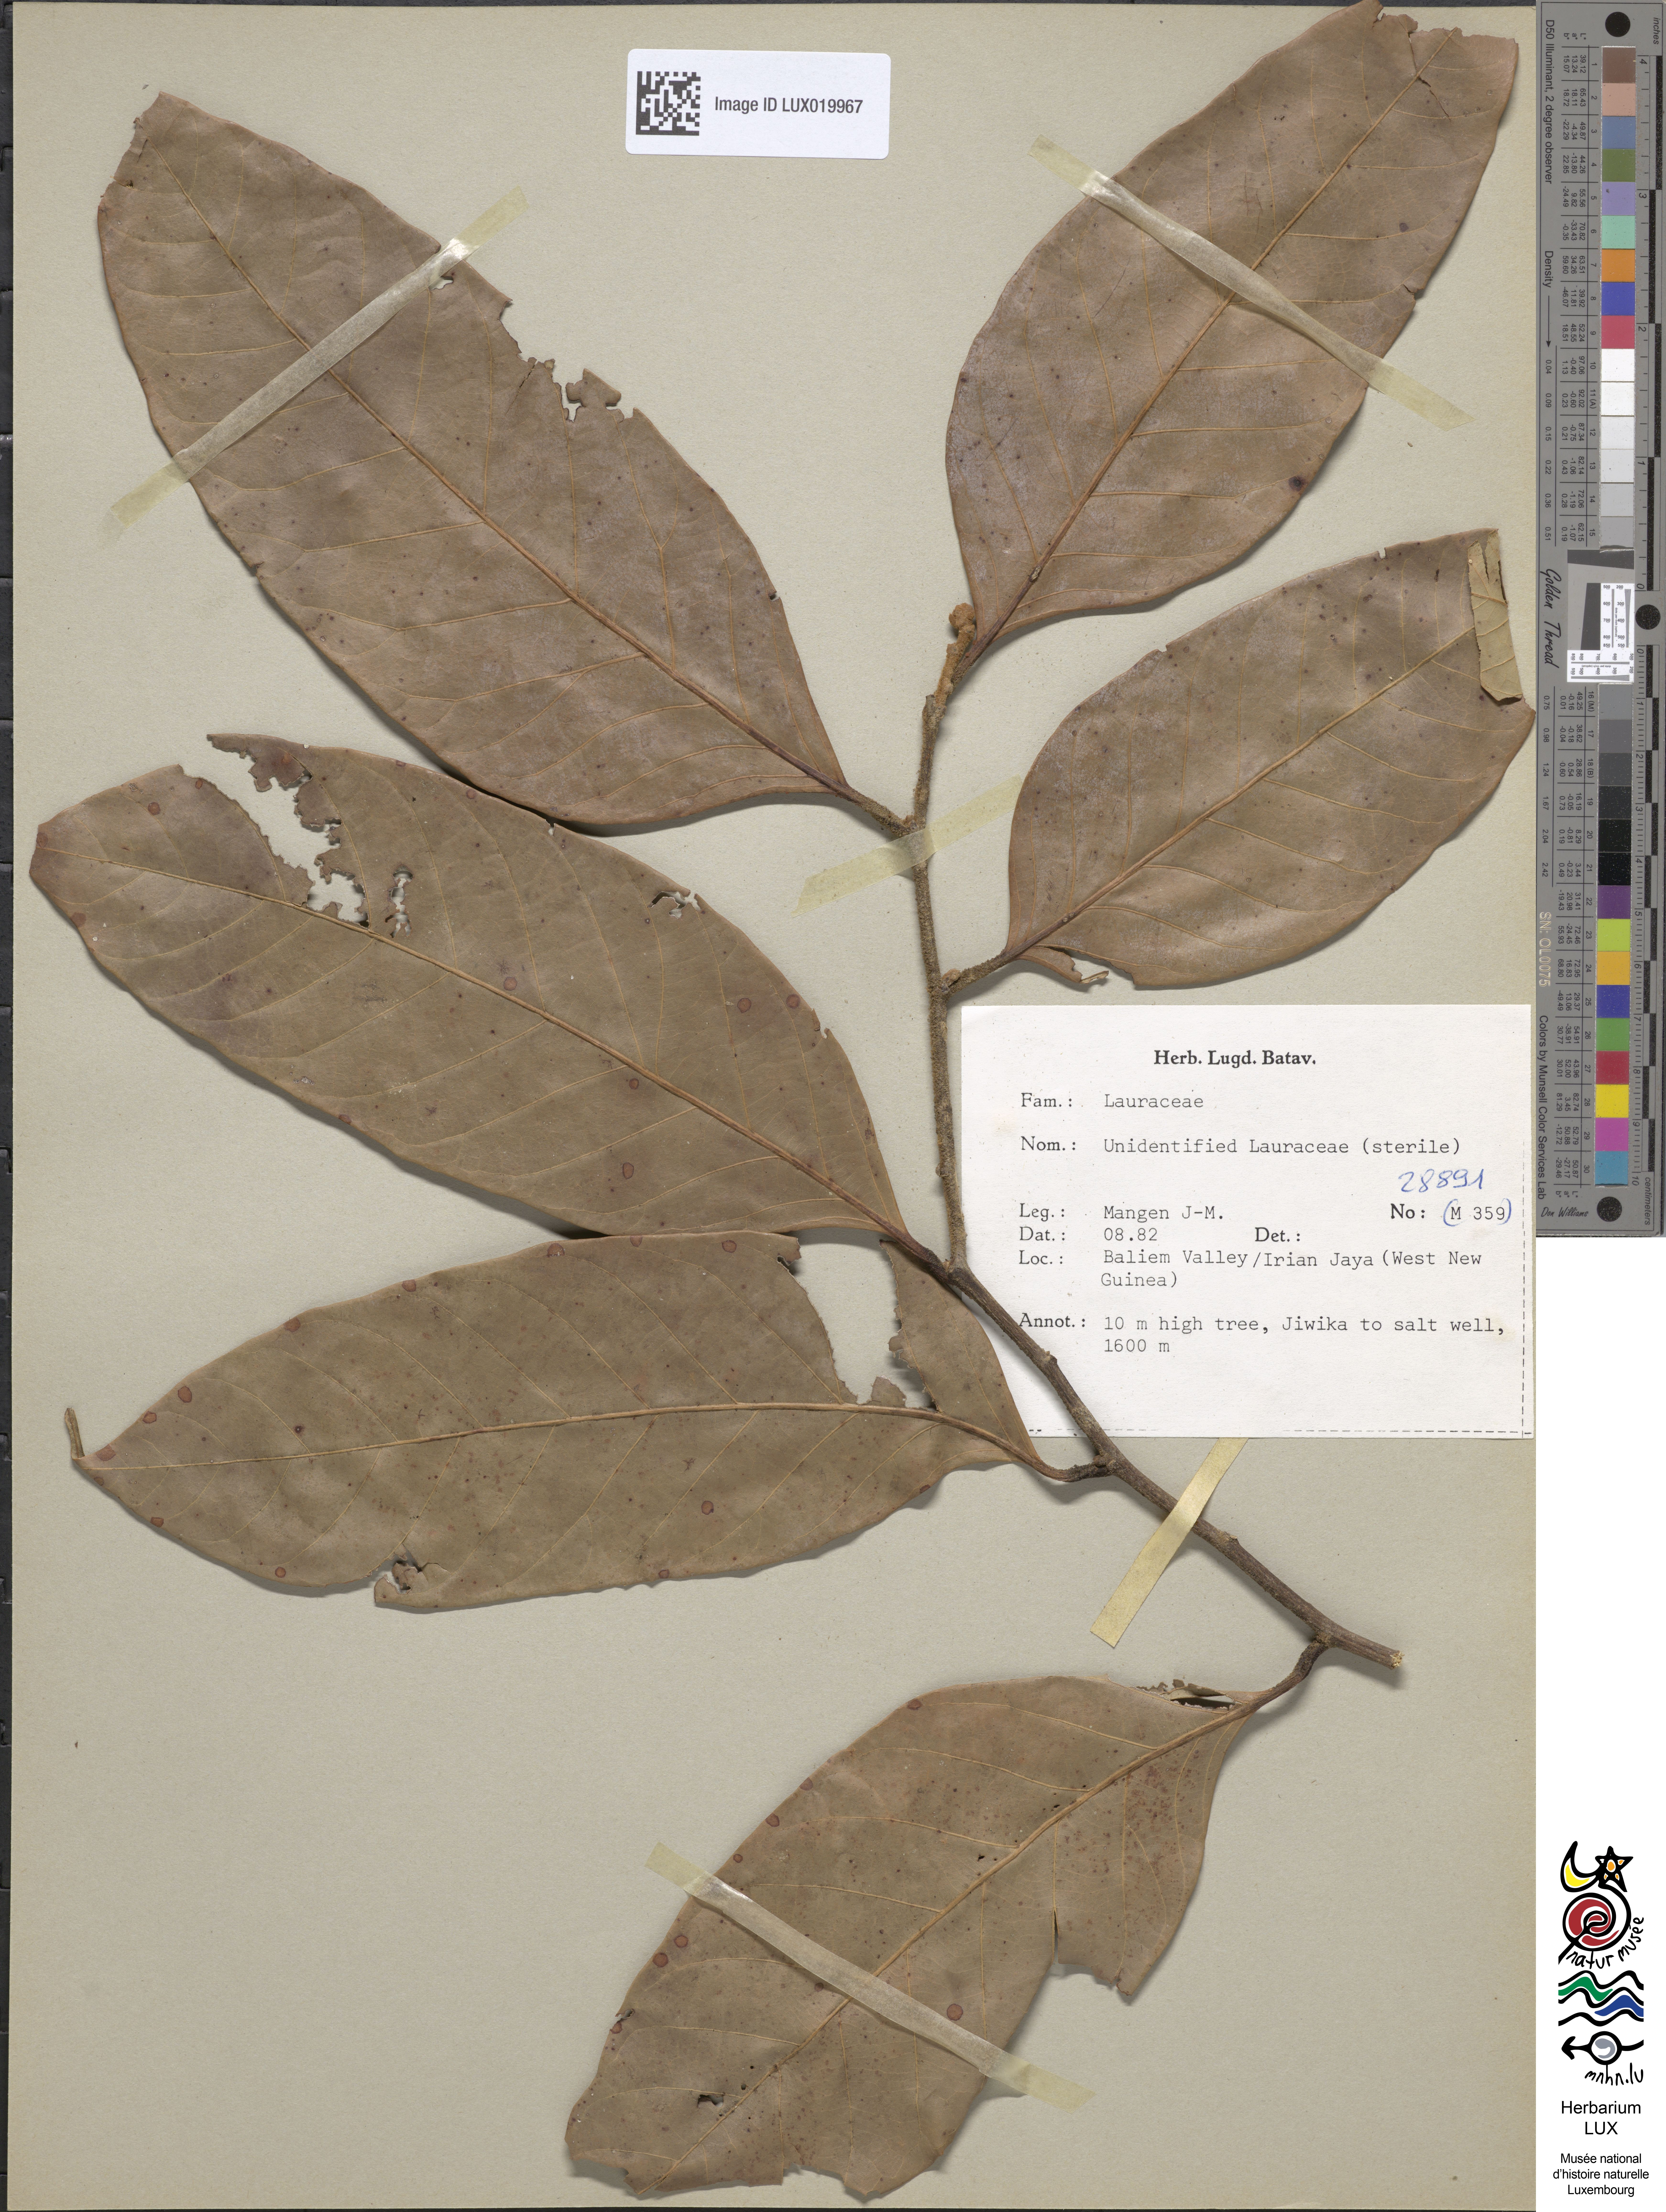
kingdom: Plantae
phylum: Tracheophyta
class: Magnoliopsida
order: Laurales
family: Lauraceae
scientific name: Lauraceae
